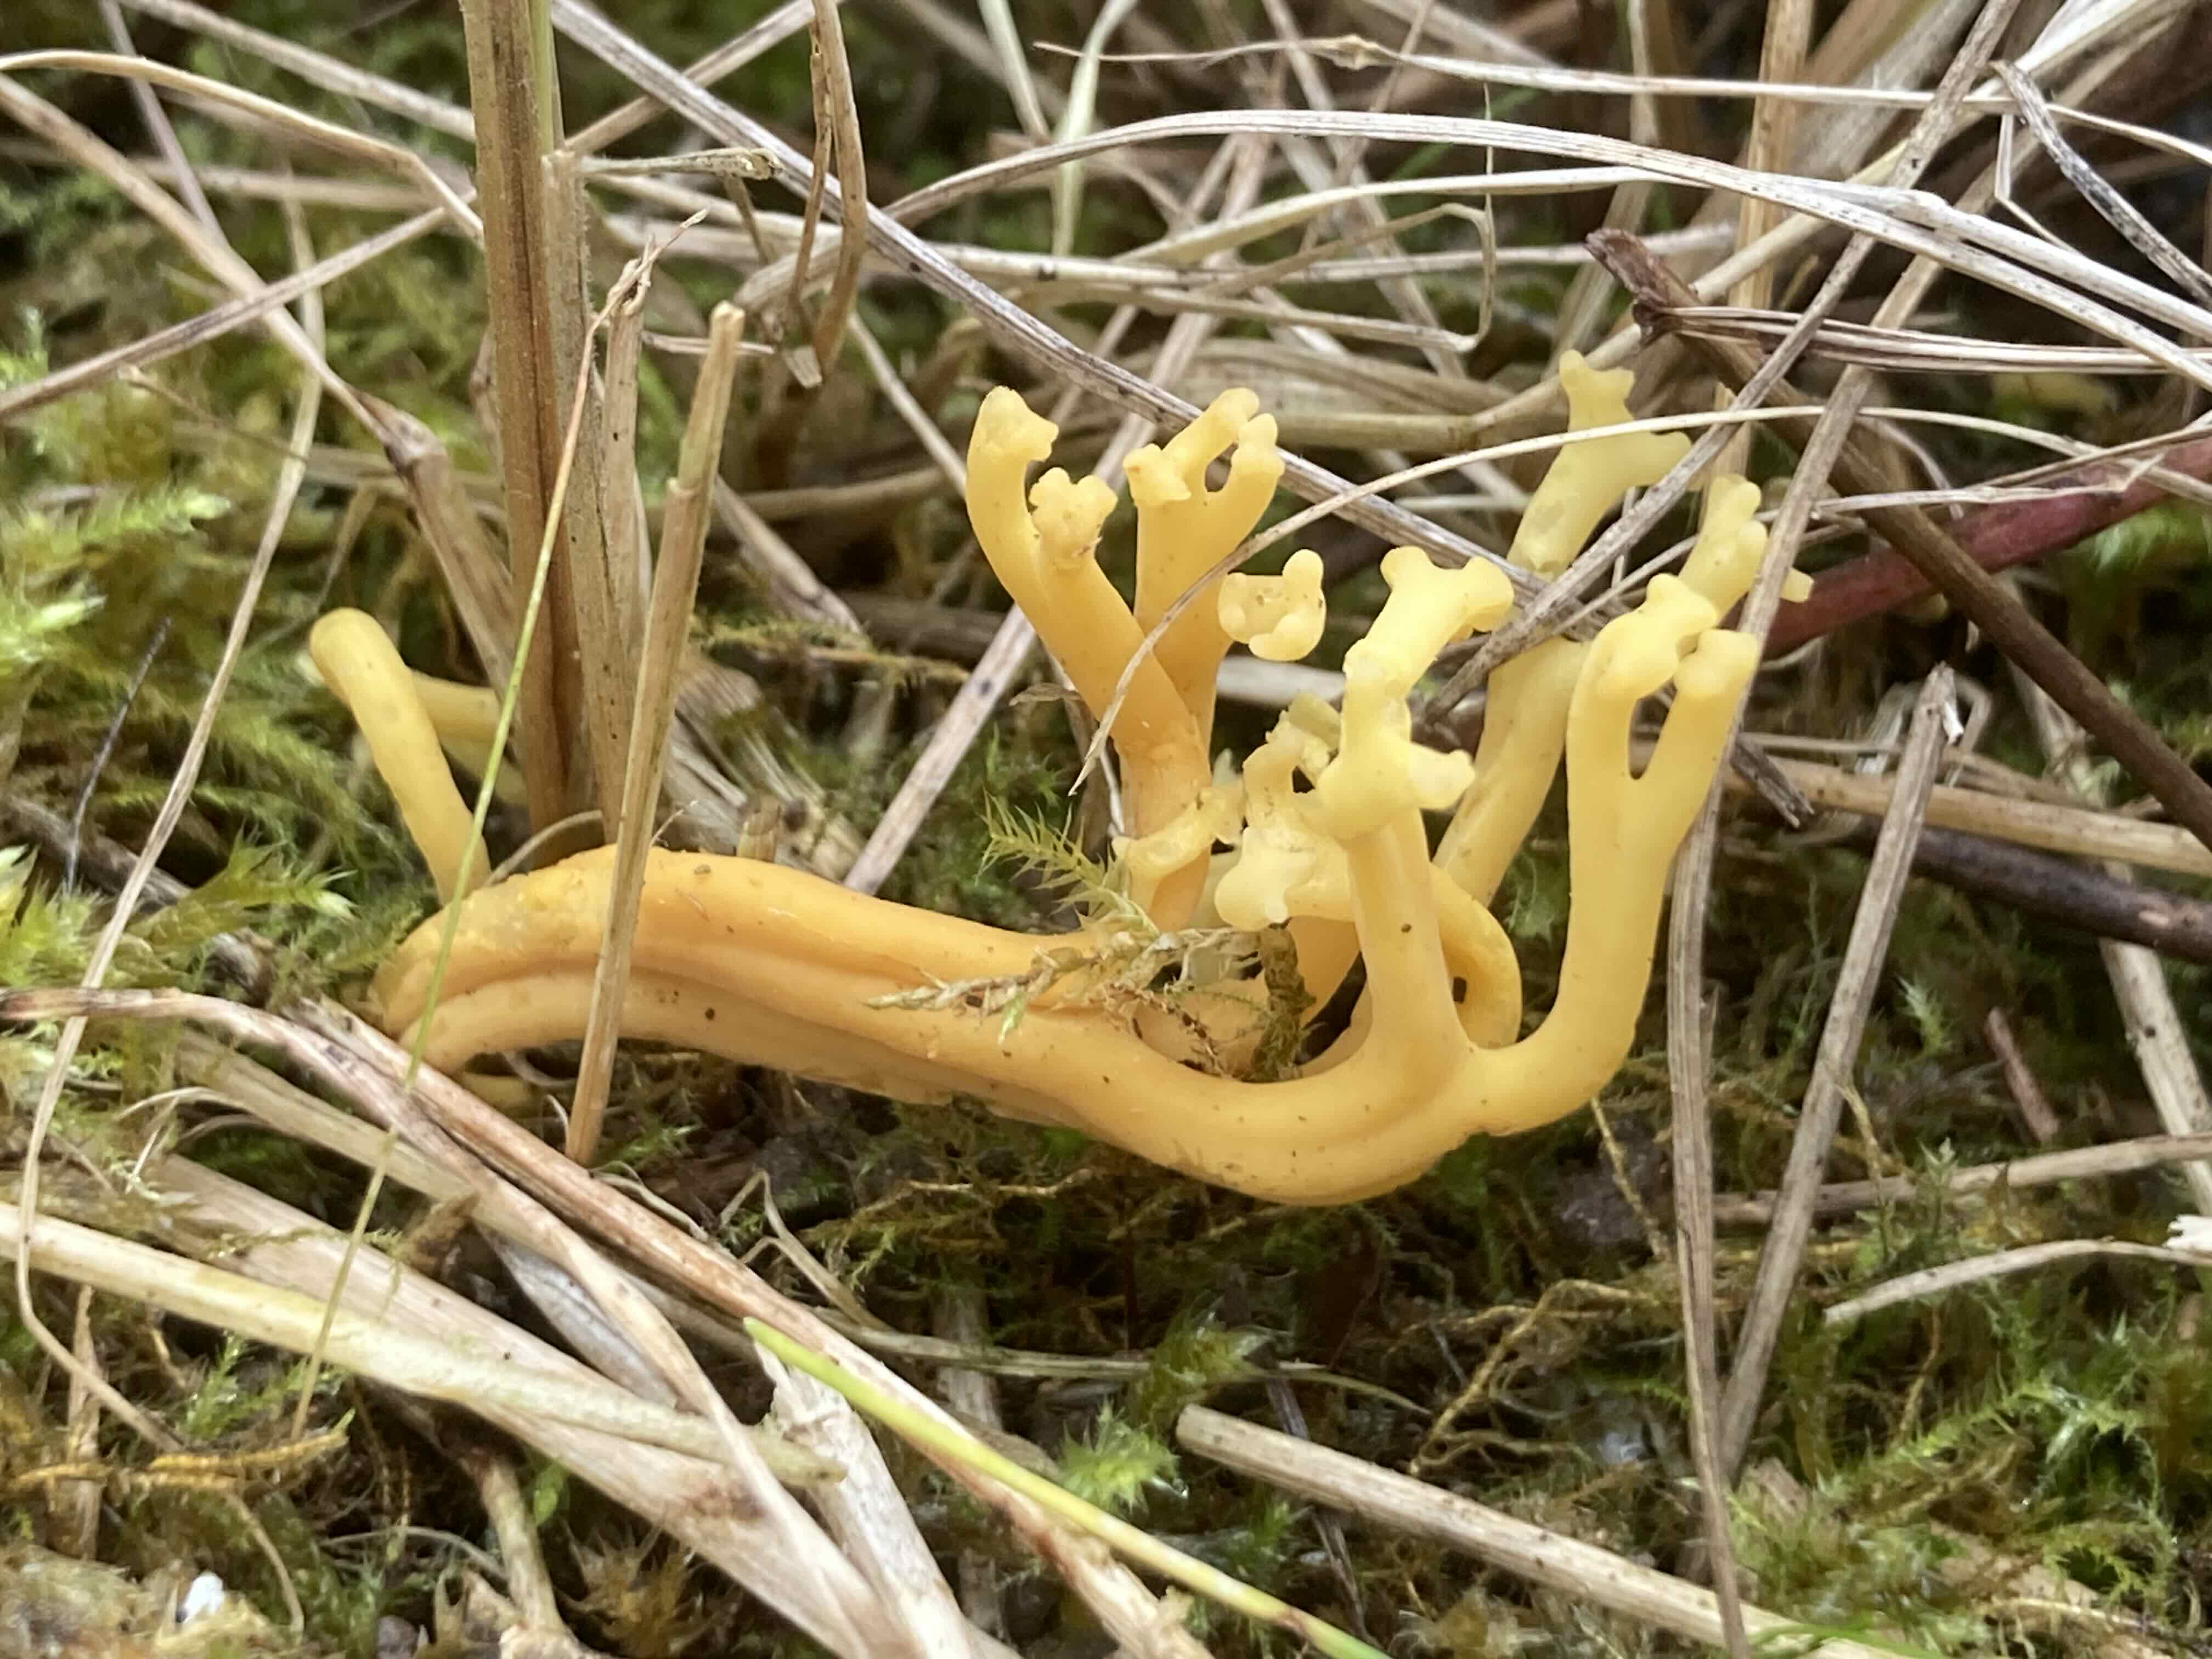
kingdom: Fungi
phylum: Basidiomycota
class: Agaricomycetes
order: Agaricales
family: Clavariaceae
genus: Clavulinopsis
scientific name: Clavulinopsis corniculata
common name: eng-køllesvamp
